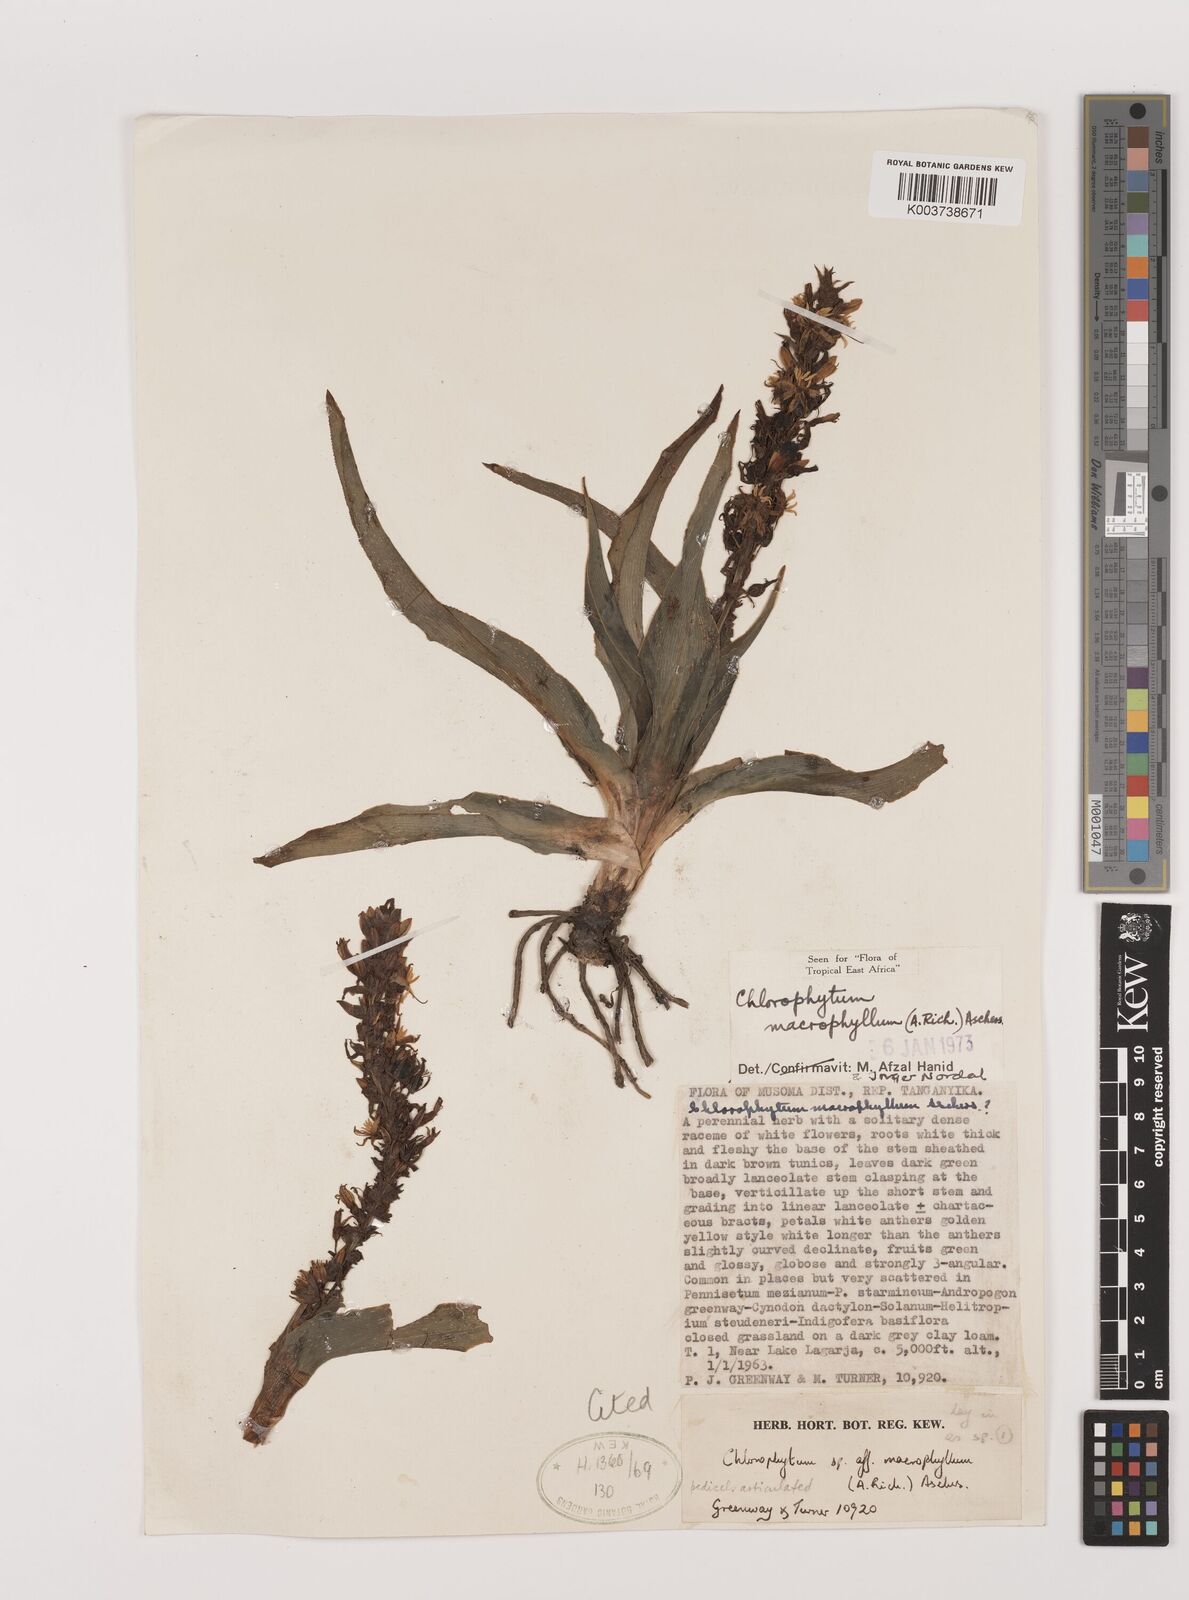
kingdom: Plantae
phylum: Tracheophyta
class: Liliopsida
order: Asparagales
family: Asparagaceae
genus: Chlorophytum
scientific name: Chlorophytum macrophyllum
